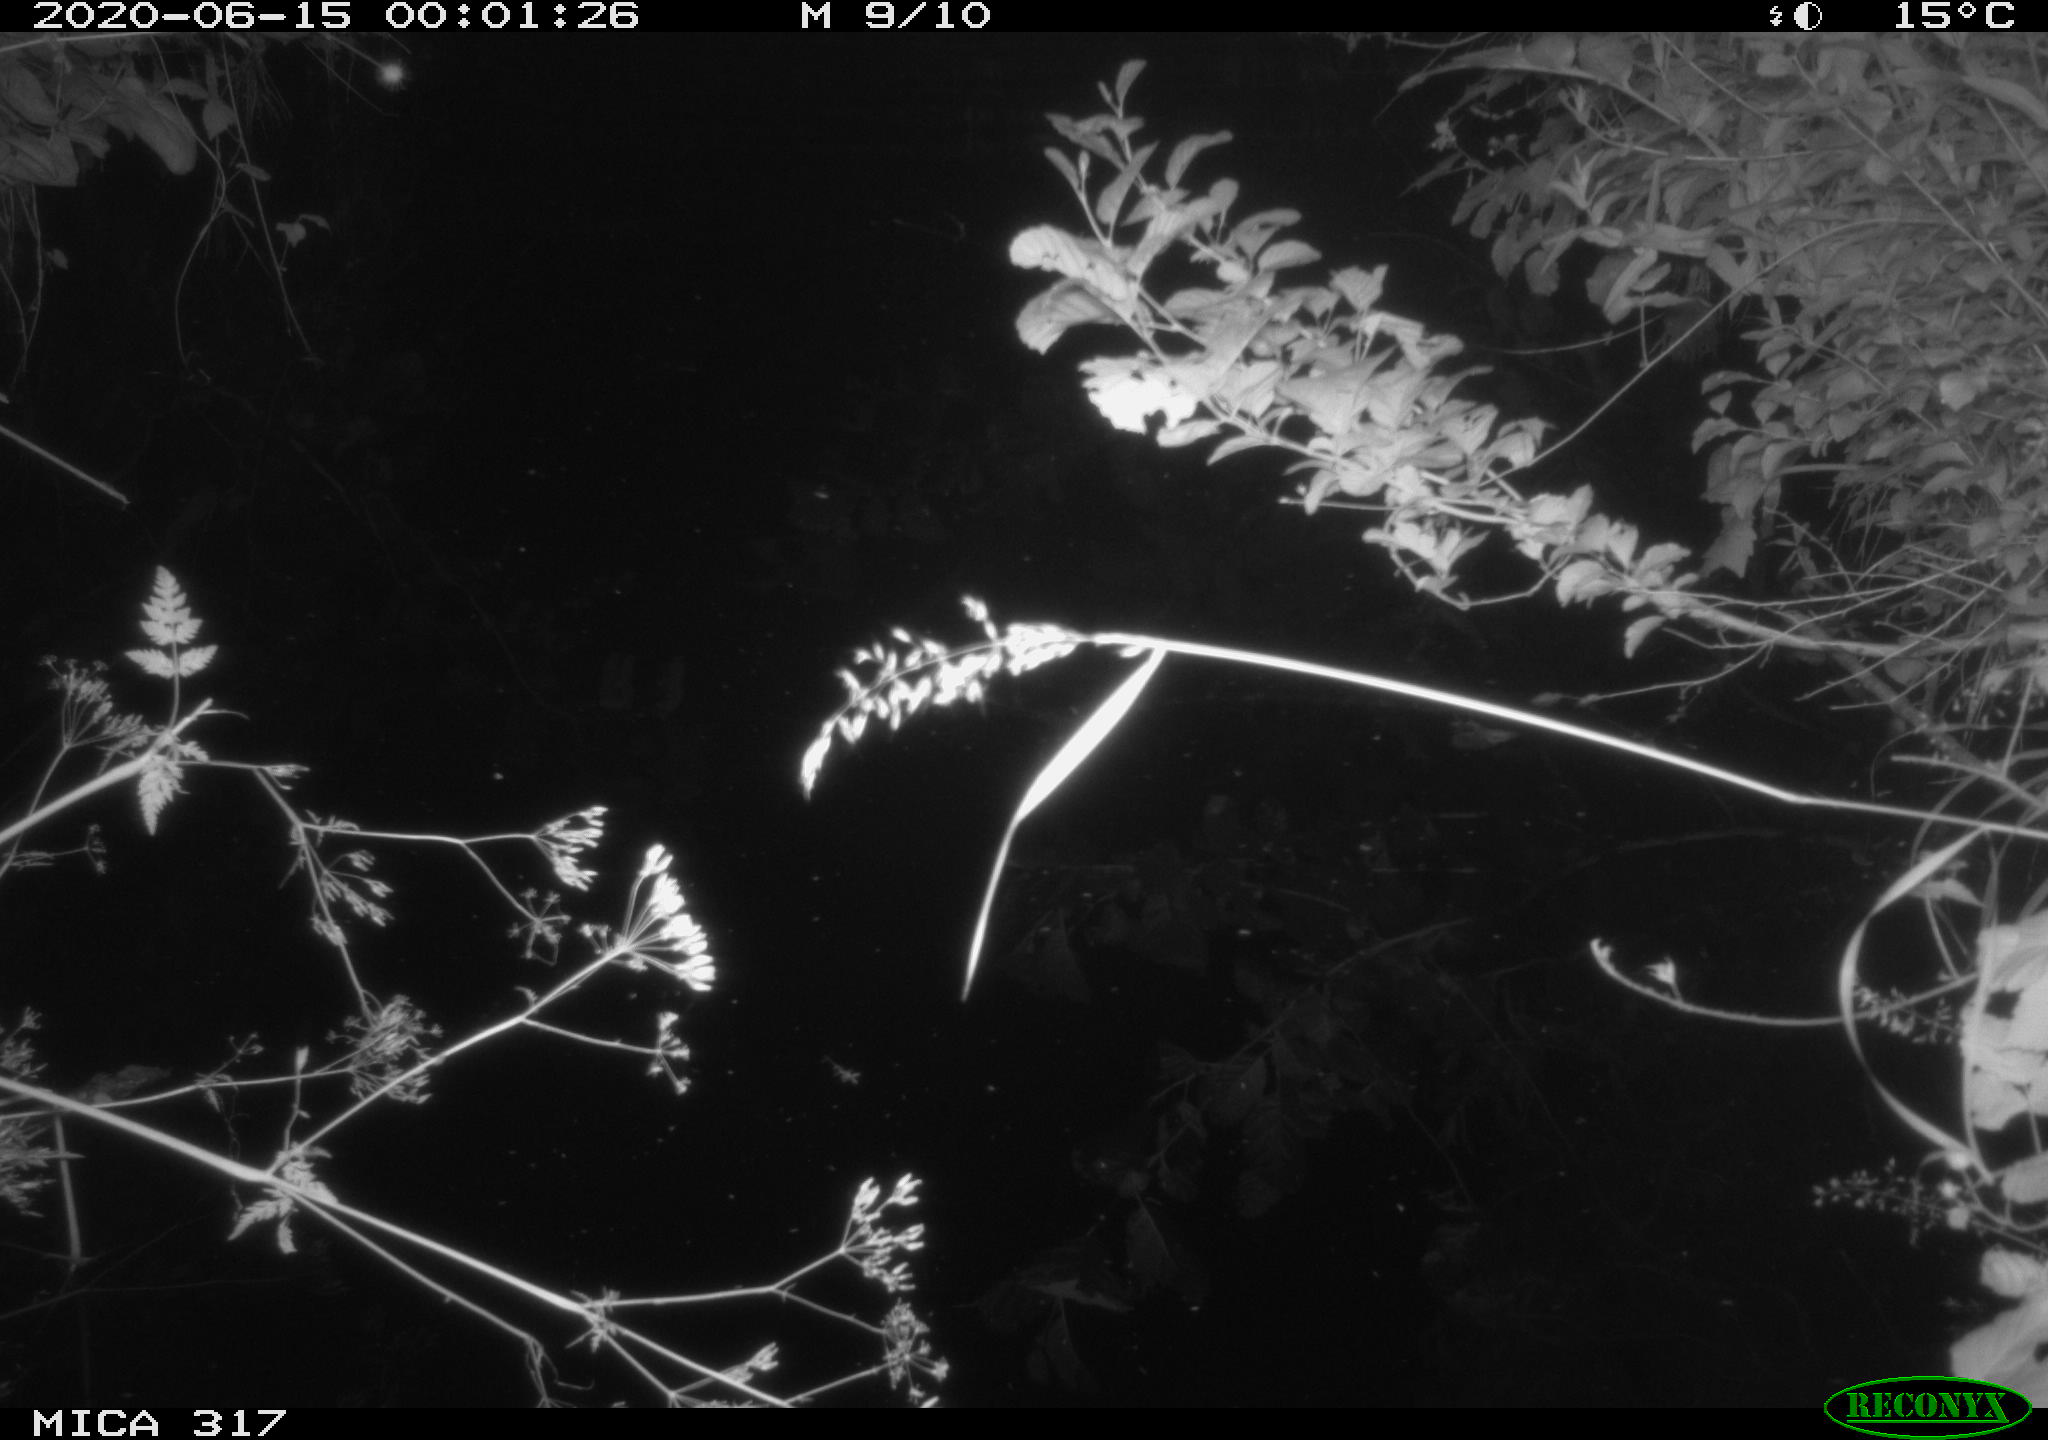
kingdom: Animalia
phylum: Chordata
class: Aves
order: Anseriformes
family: Anatidae
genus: Anas
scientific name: Anas platyrhynchos
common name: Mallard
